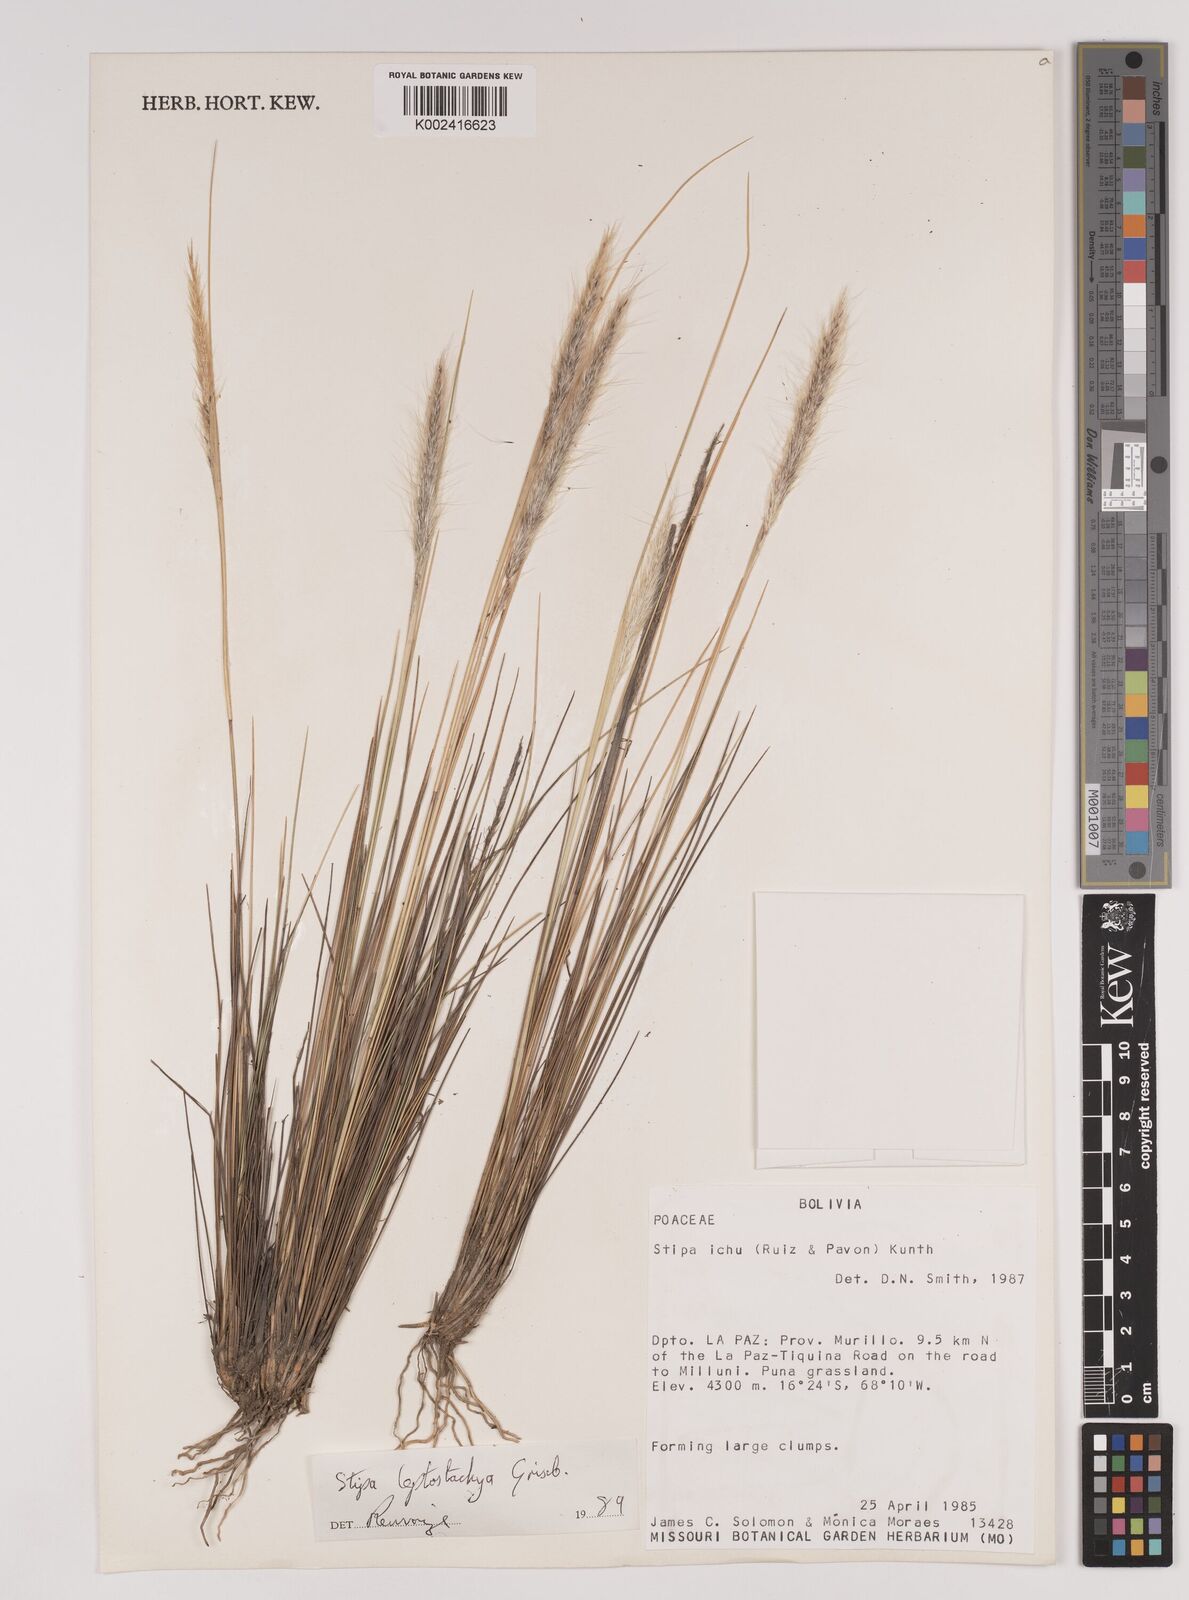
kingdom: Plantae
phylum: Tracheophyta
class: Liliopsida
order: Poales
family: Poaceae
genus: Jarava
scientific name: Jarava leptostachya
